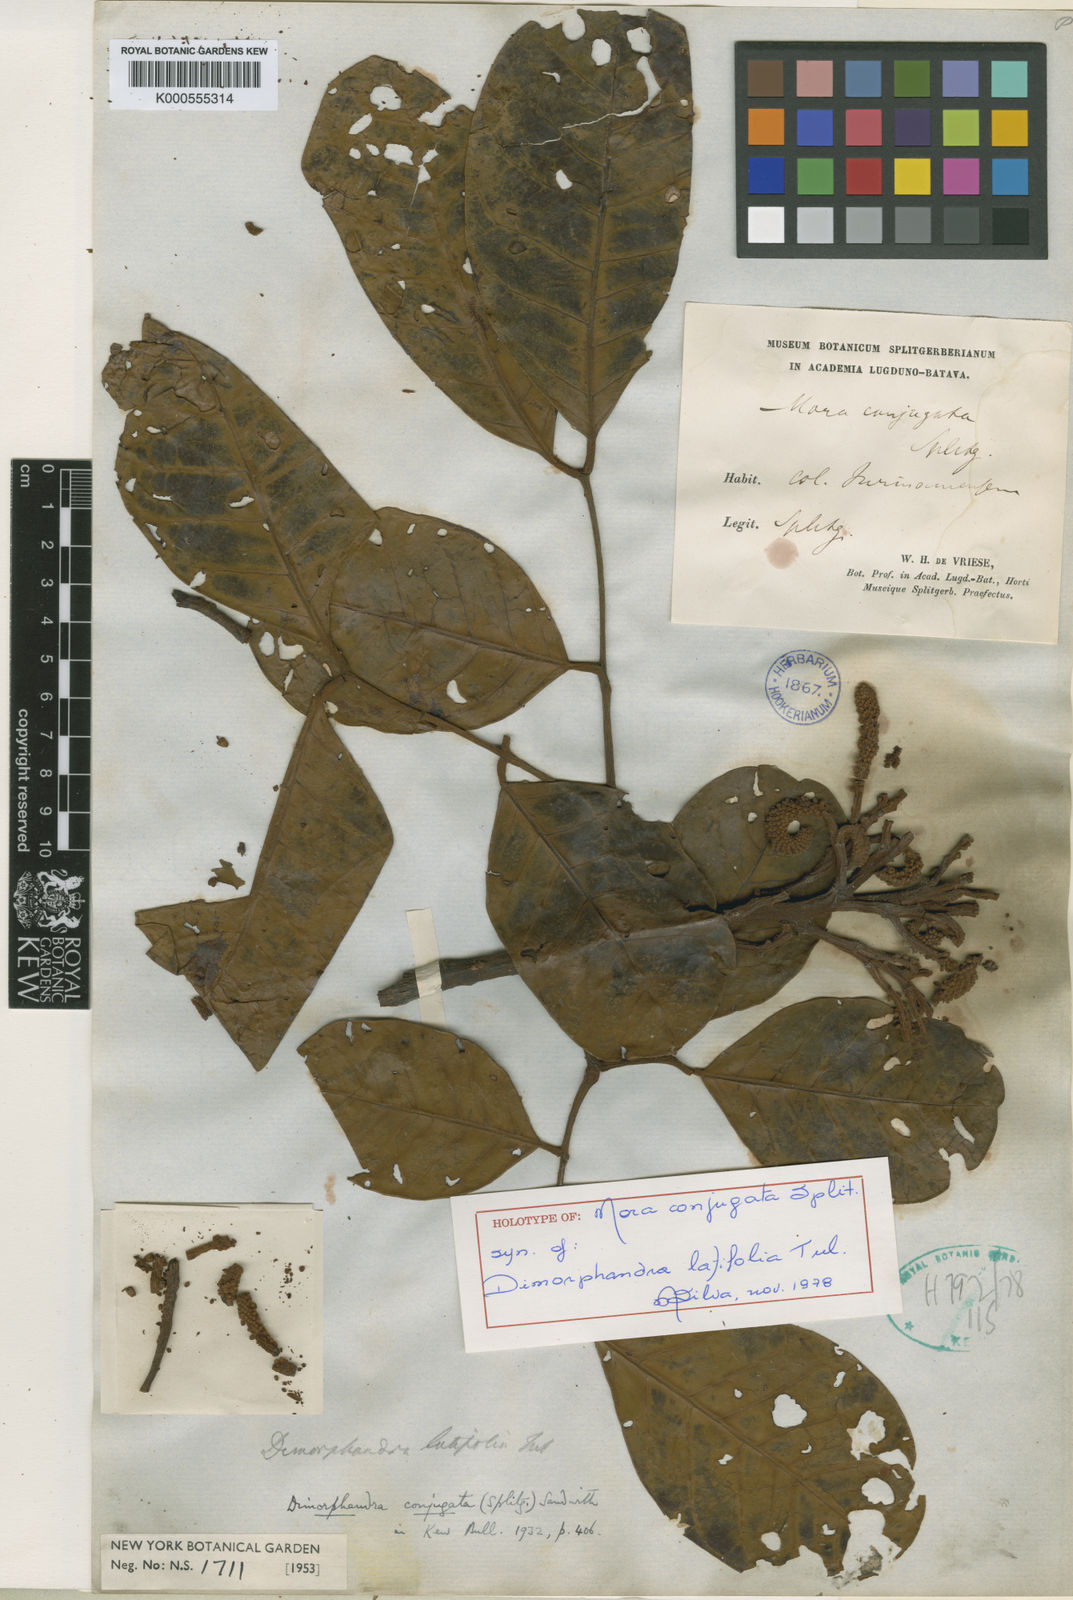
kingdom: Plantae
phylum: Tracheophyta
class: Magnoliopsida
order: Fabales
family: Fabaceae
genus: Dimorphandra
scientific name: Dimorphandra conjugata
